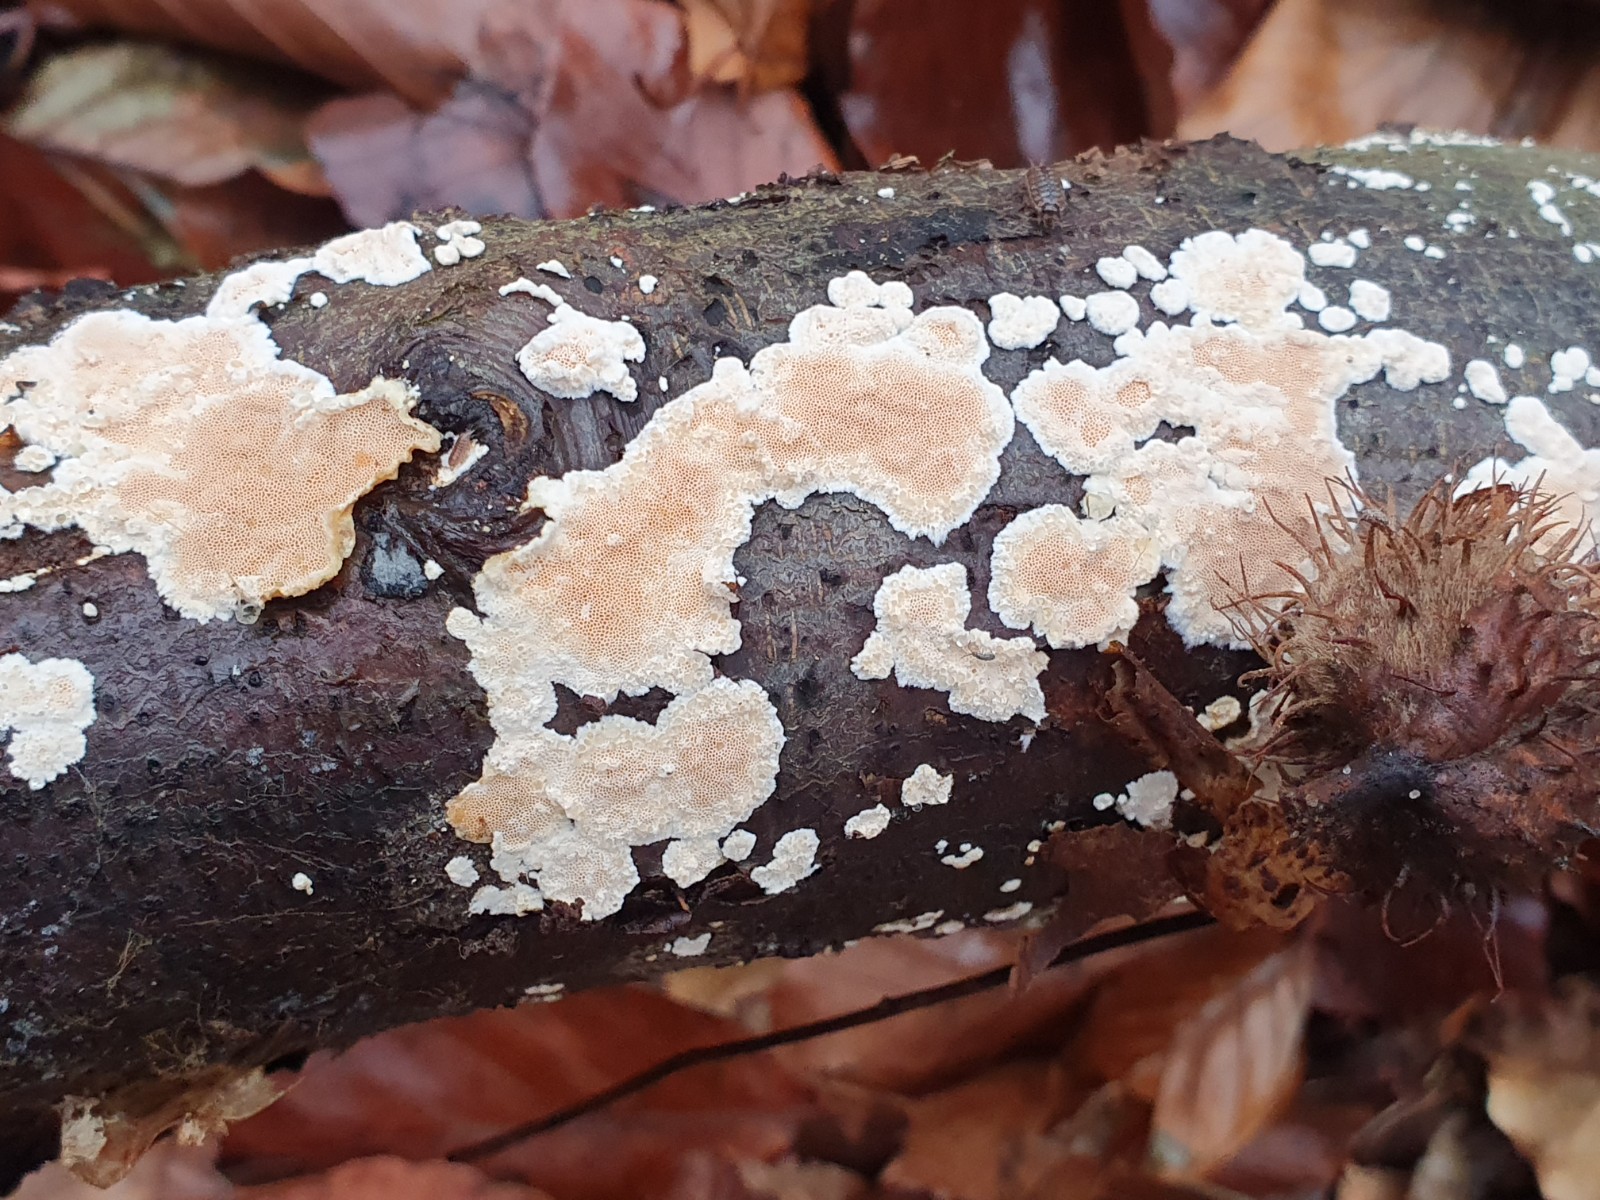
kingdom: Fungi
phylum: Basidiomycota
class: Agaricomycetes
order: Polyporales
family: Steccherinaceae
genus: Junghuhnia
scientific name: Junghuhnia nitida
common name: almindelig skønporesvamp
